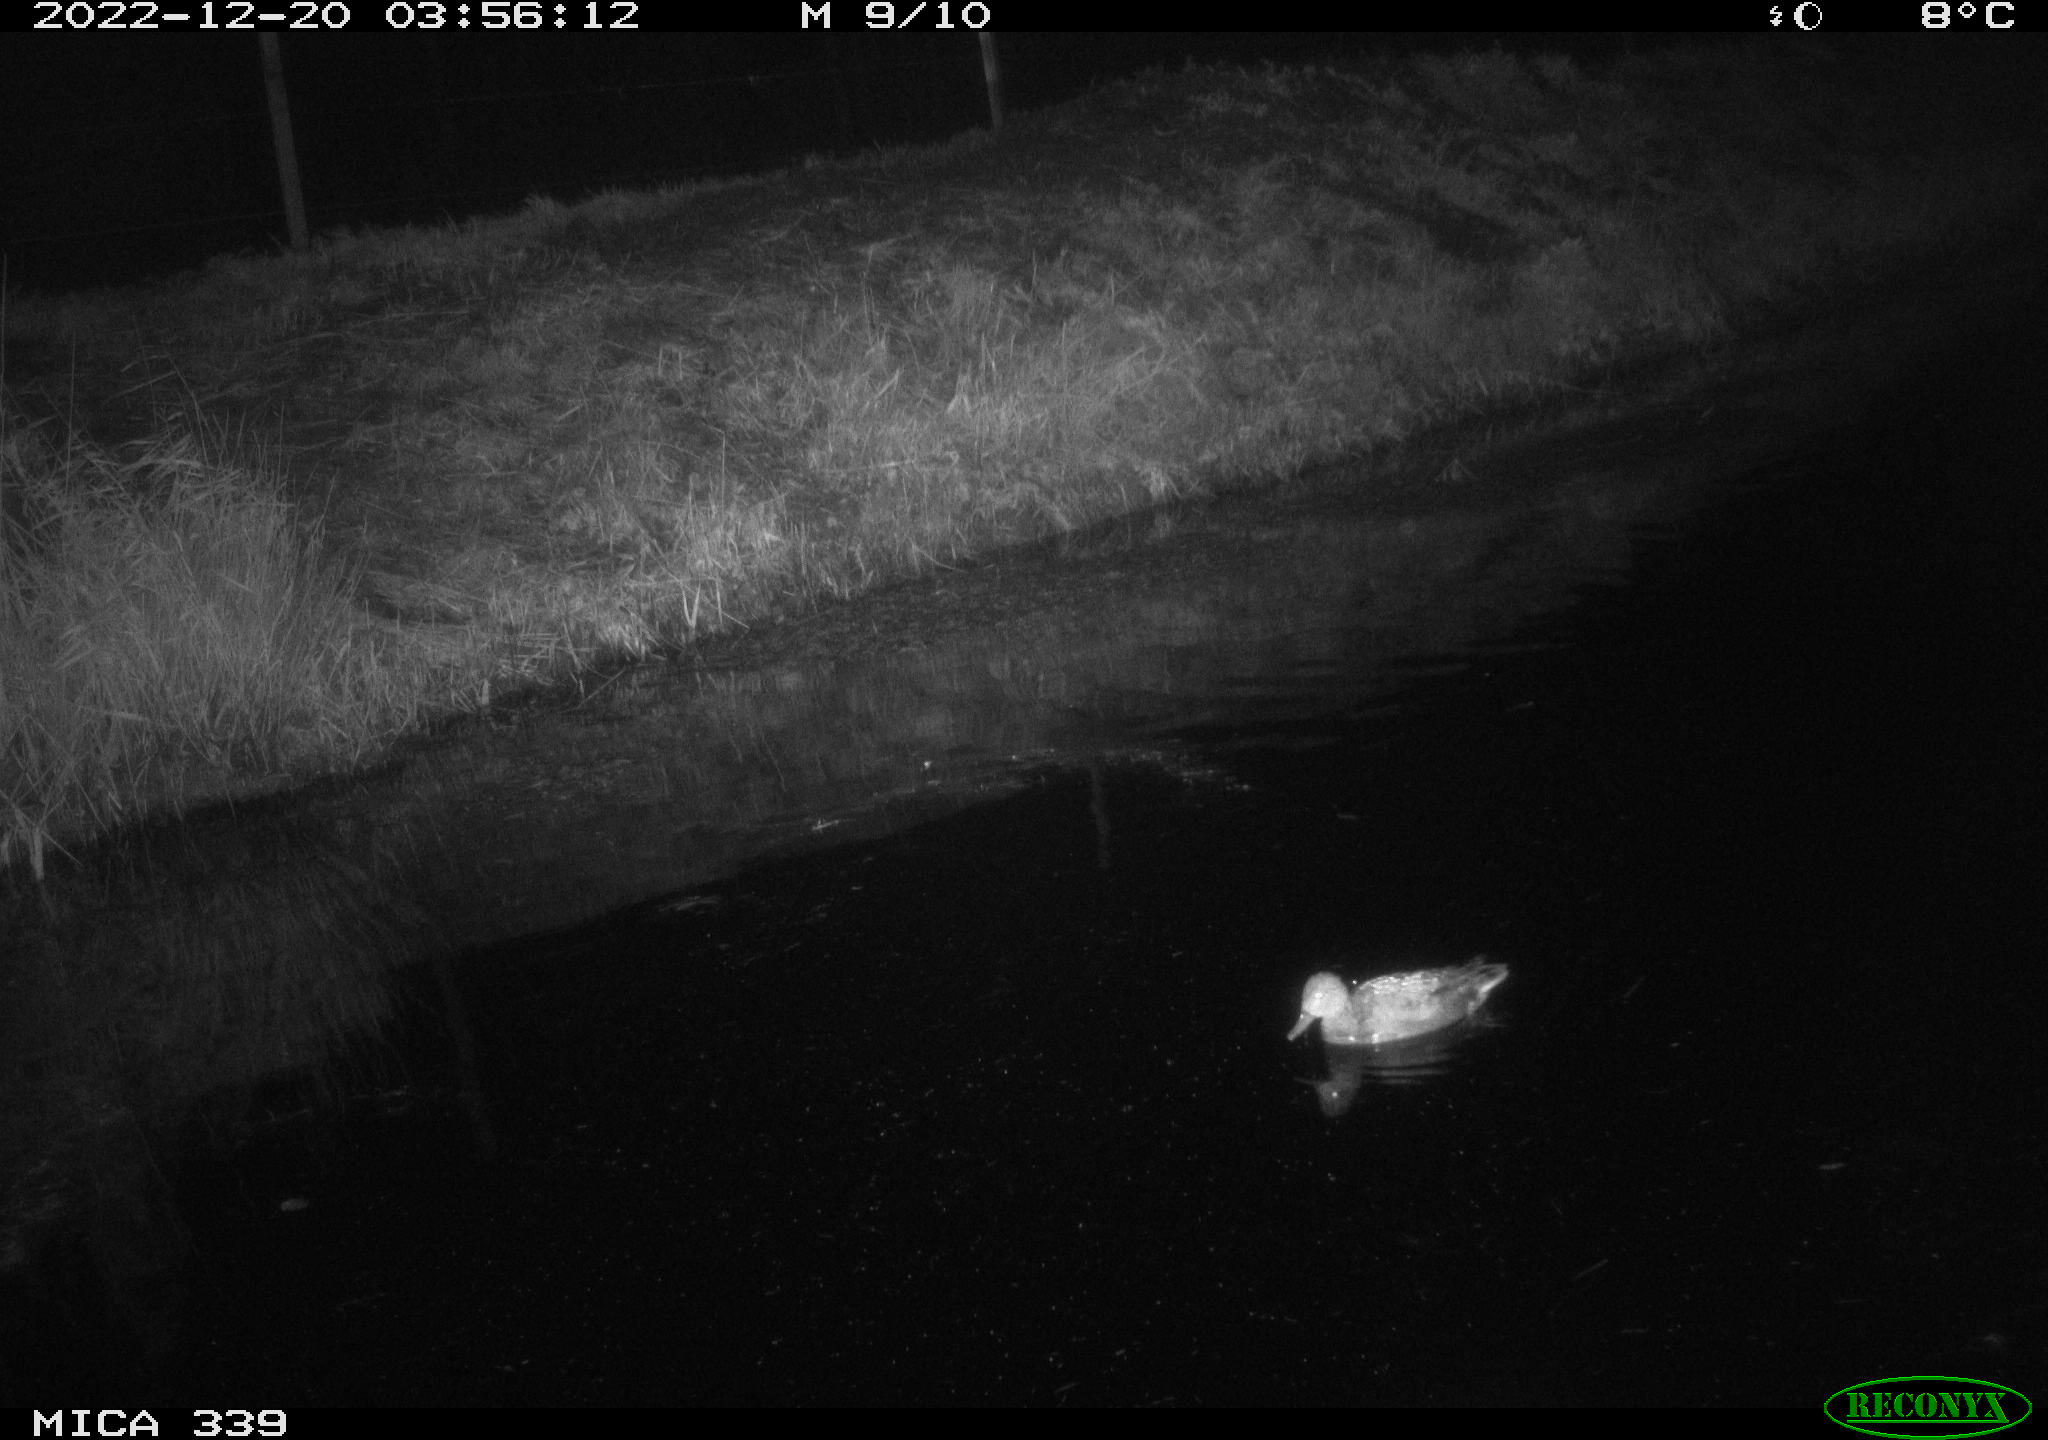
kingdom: Animalia
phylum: Chordata
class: Aves
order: Anseriformes
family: Anatidae
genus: Anas
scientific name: Anas
